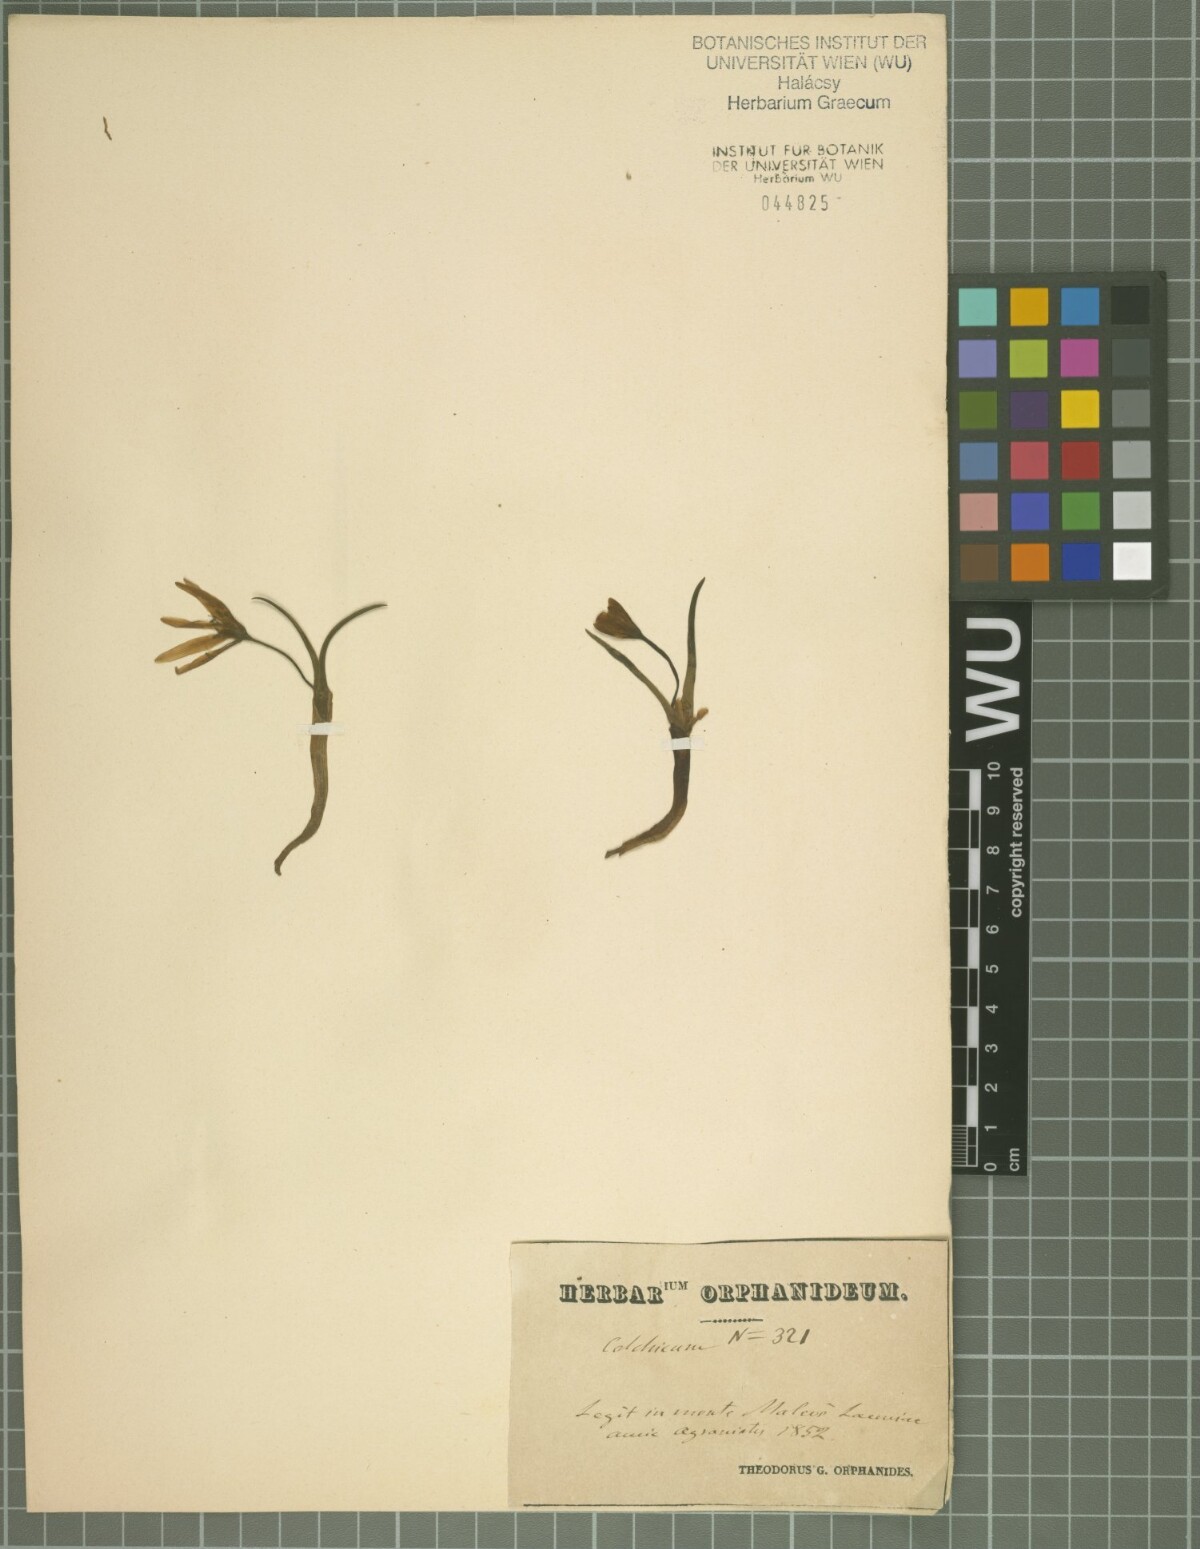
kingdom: Plantae
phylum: Tracheophyta
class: Liliopsida
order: Liliales
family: Colchicaceae
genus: Colchicum
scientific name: Colchicum cupanii
